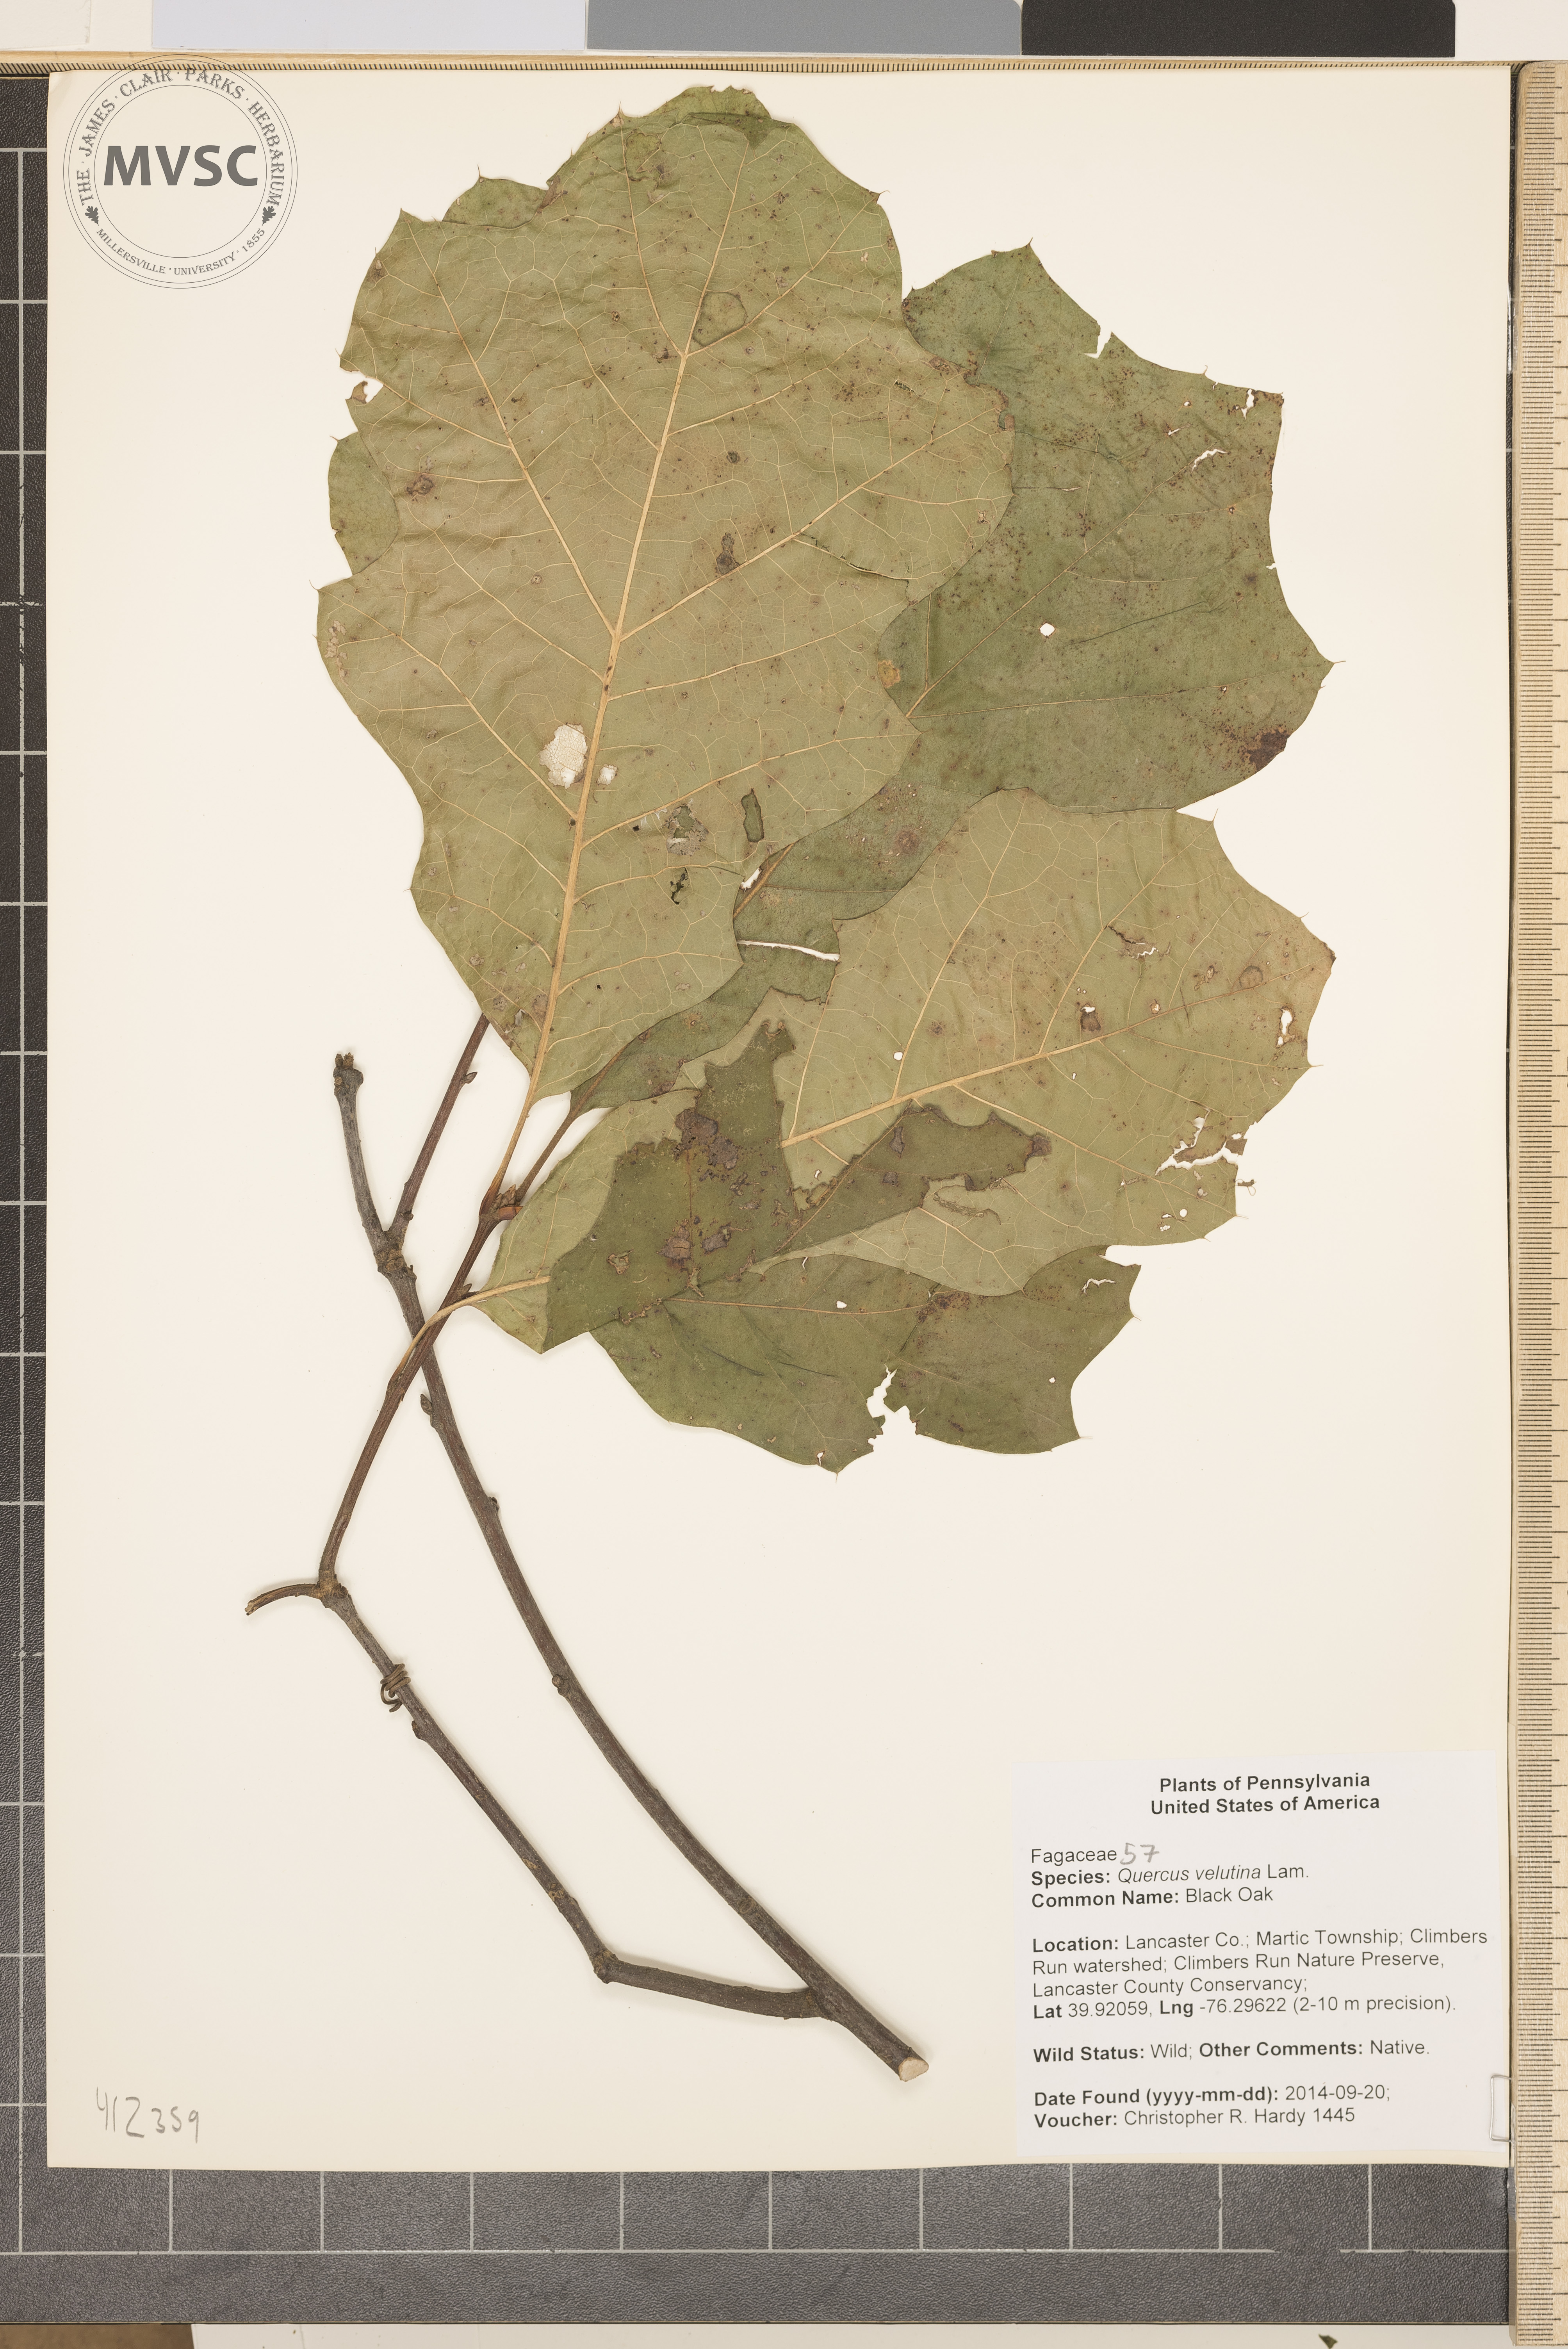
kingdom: Plantae
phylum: Tracheophyta
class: Magnoliopsida
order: Fagales
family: Fagaceae
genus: Quercus
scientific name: Quercus velutina
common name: black Oak
